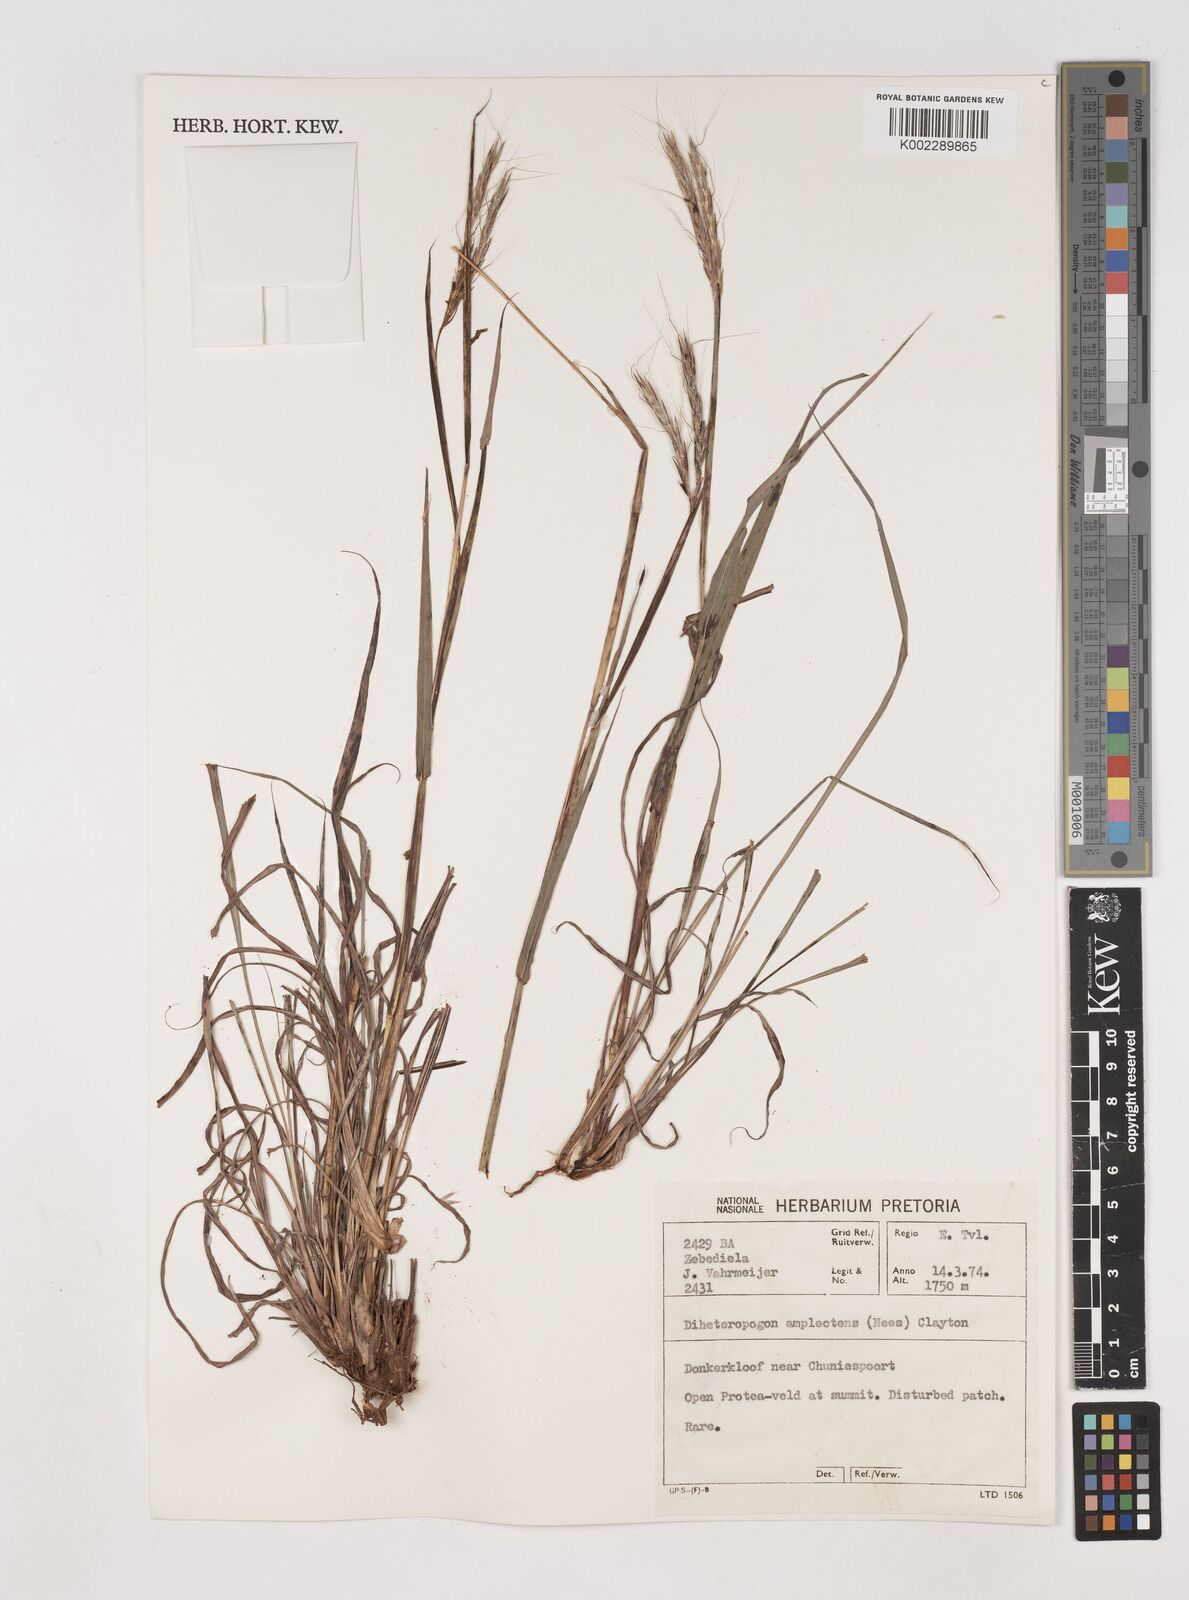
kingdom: Plantae
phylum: Tracheophyta
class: Liliopsida
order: Poales
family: Poaceae
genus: Diheteropogon
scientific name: Diheteropogon amplectens
